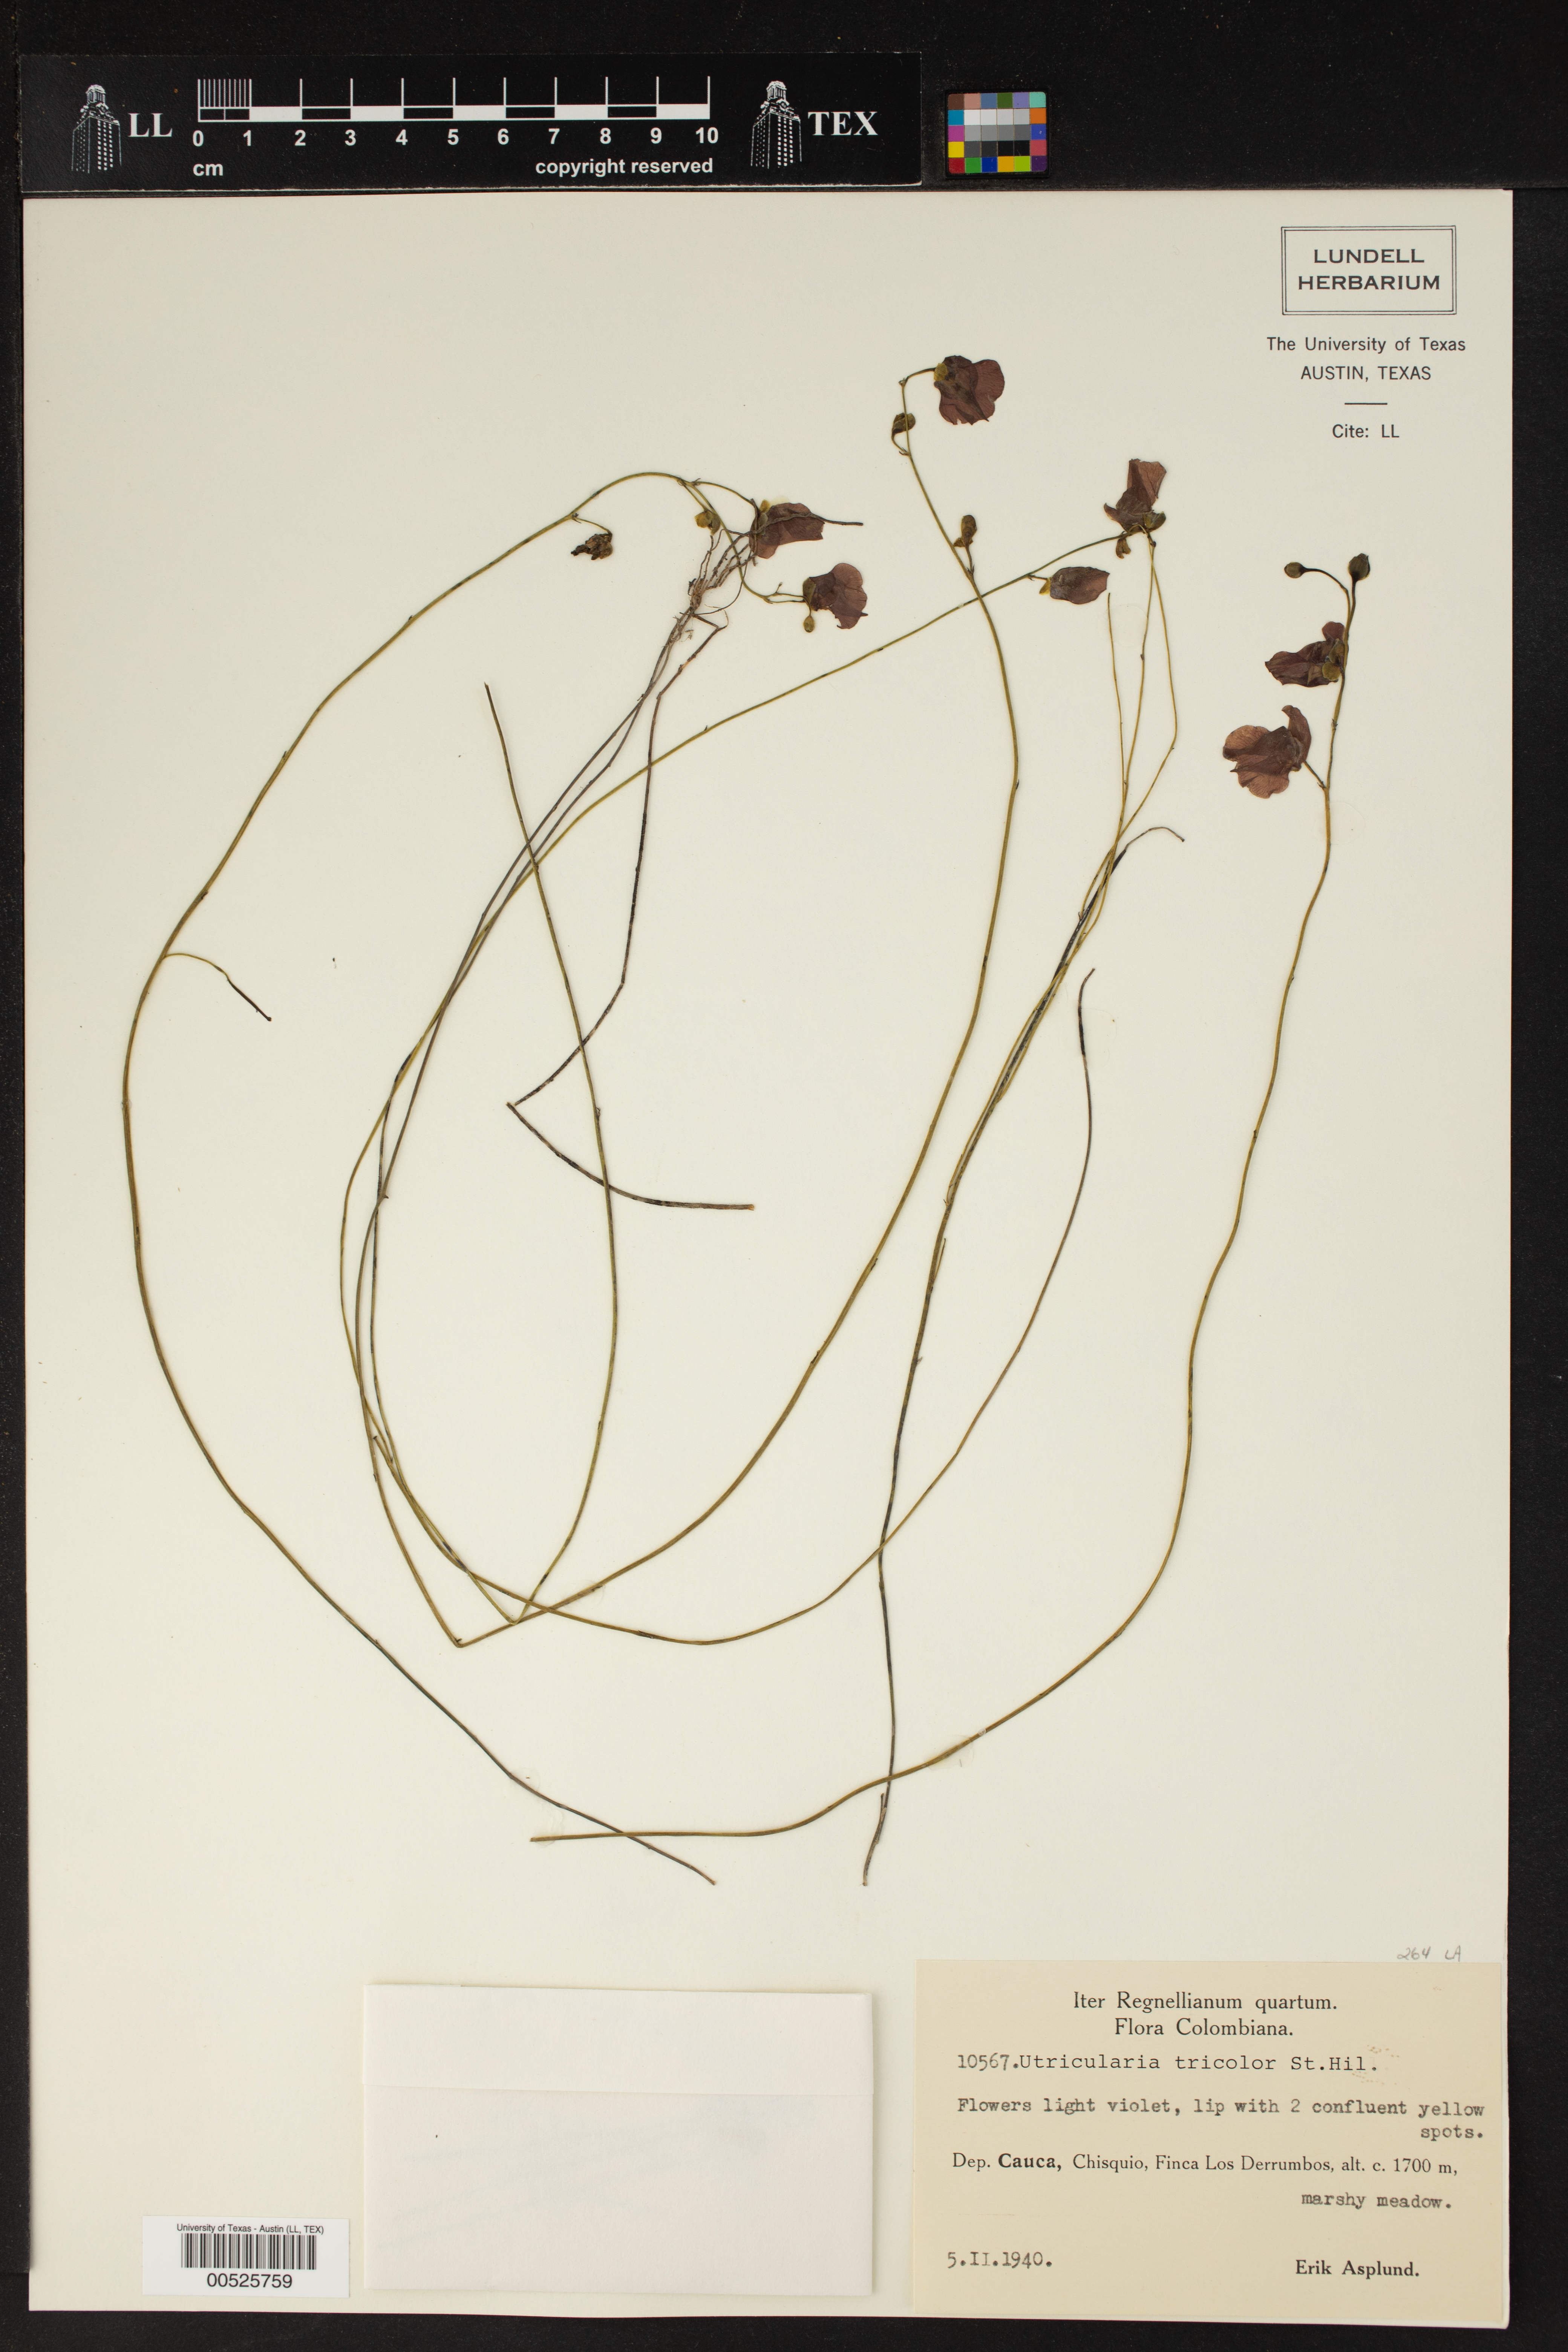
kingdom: Plantae
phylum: Tracheophyta
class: Magnoliopsida
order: Lamiales
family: Lentibulariaceae
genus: Utricularia
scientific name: Utricularia tricolor
